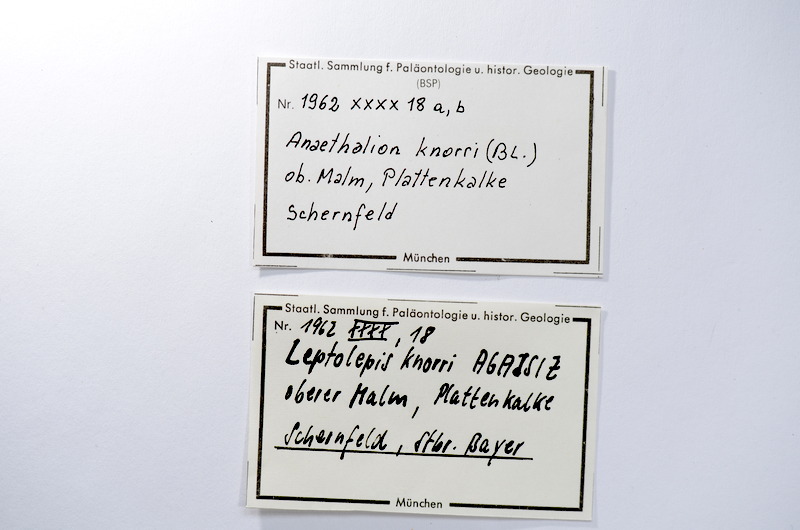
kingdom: Animalia
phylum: Chordata
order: Elopiformes
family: Anaethalionidae
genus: Anaethalion
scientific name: Anaethalion knorri
